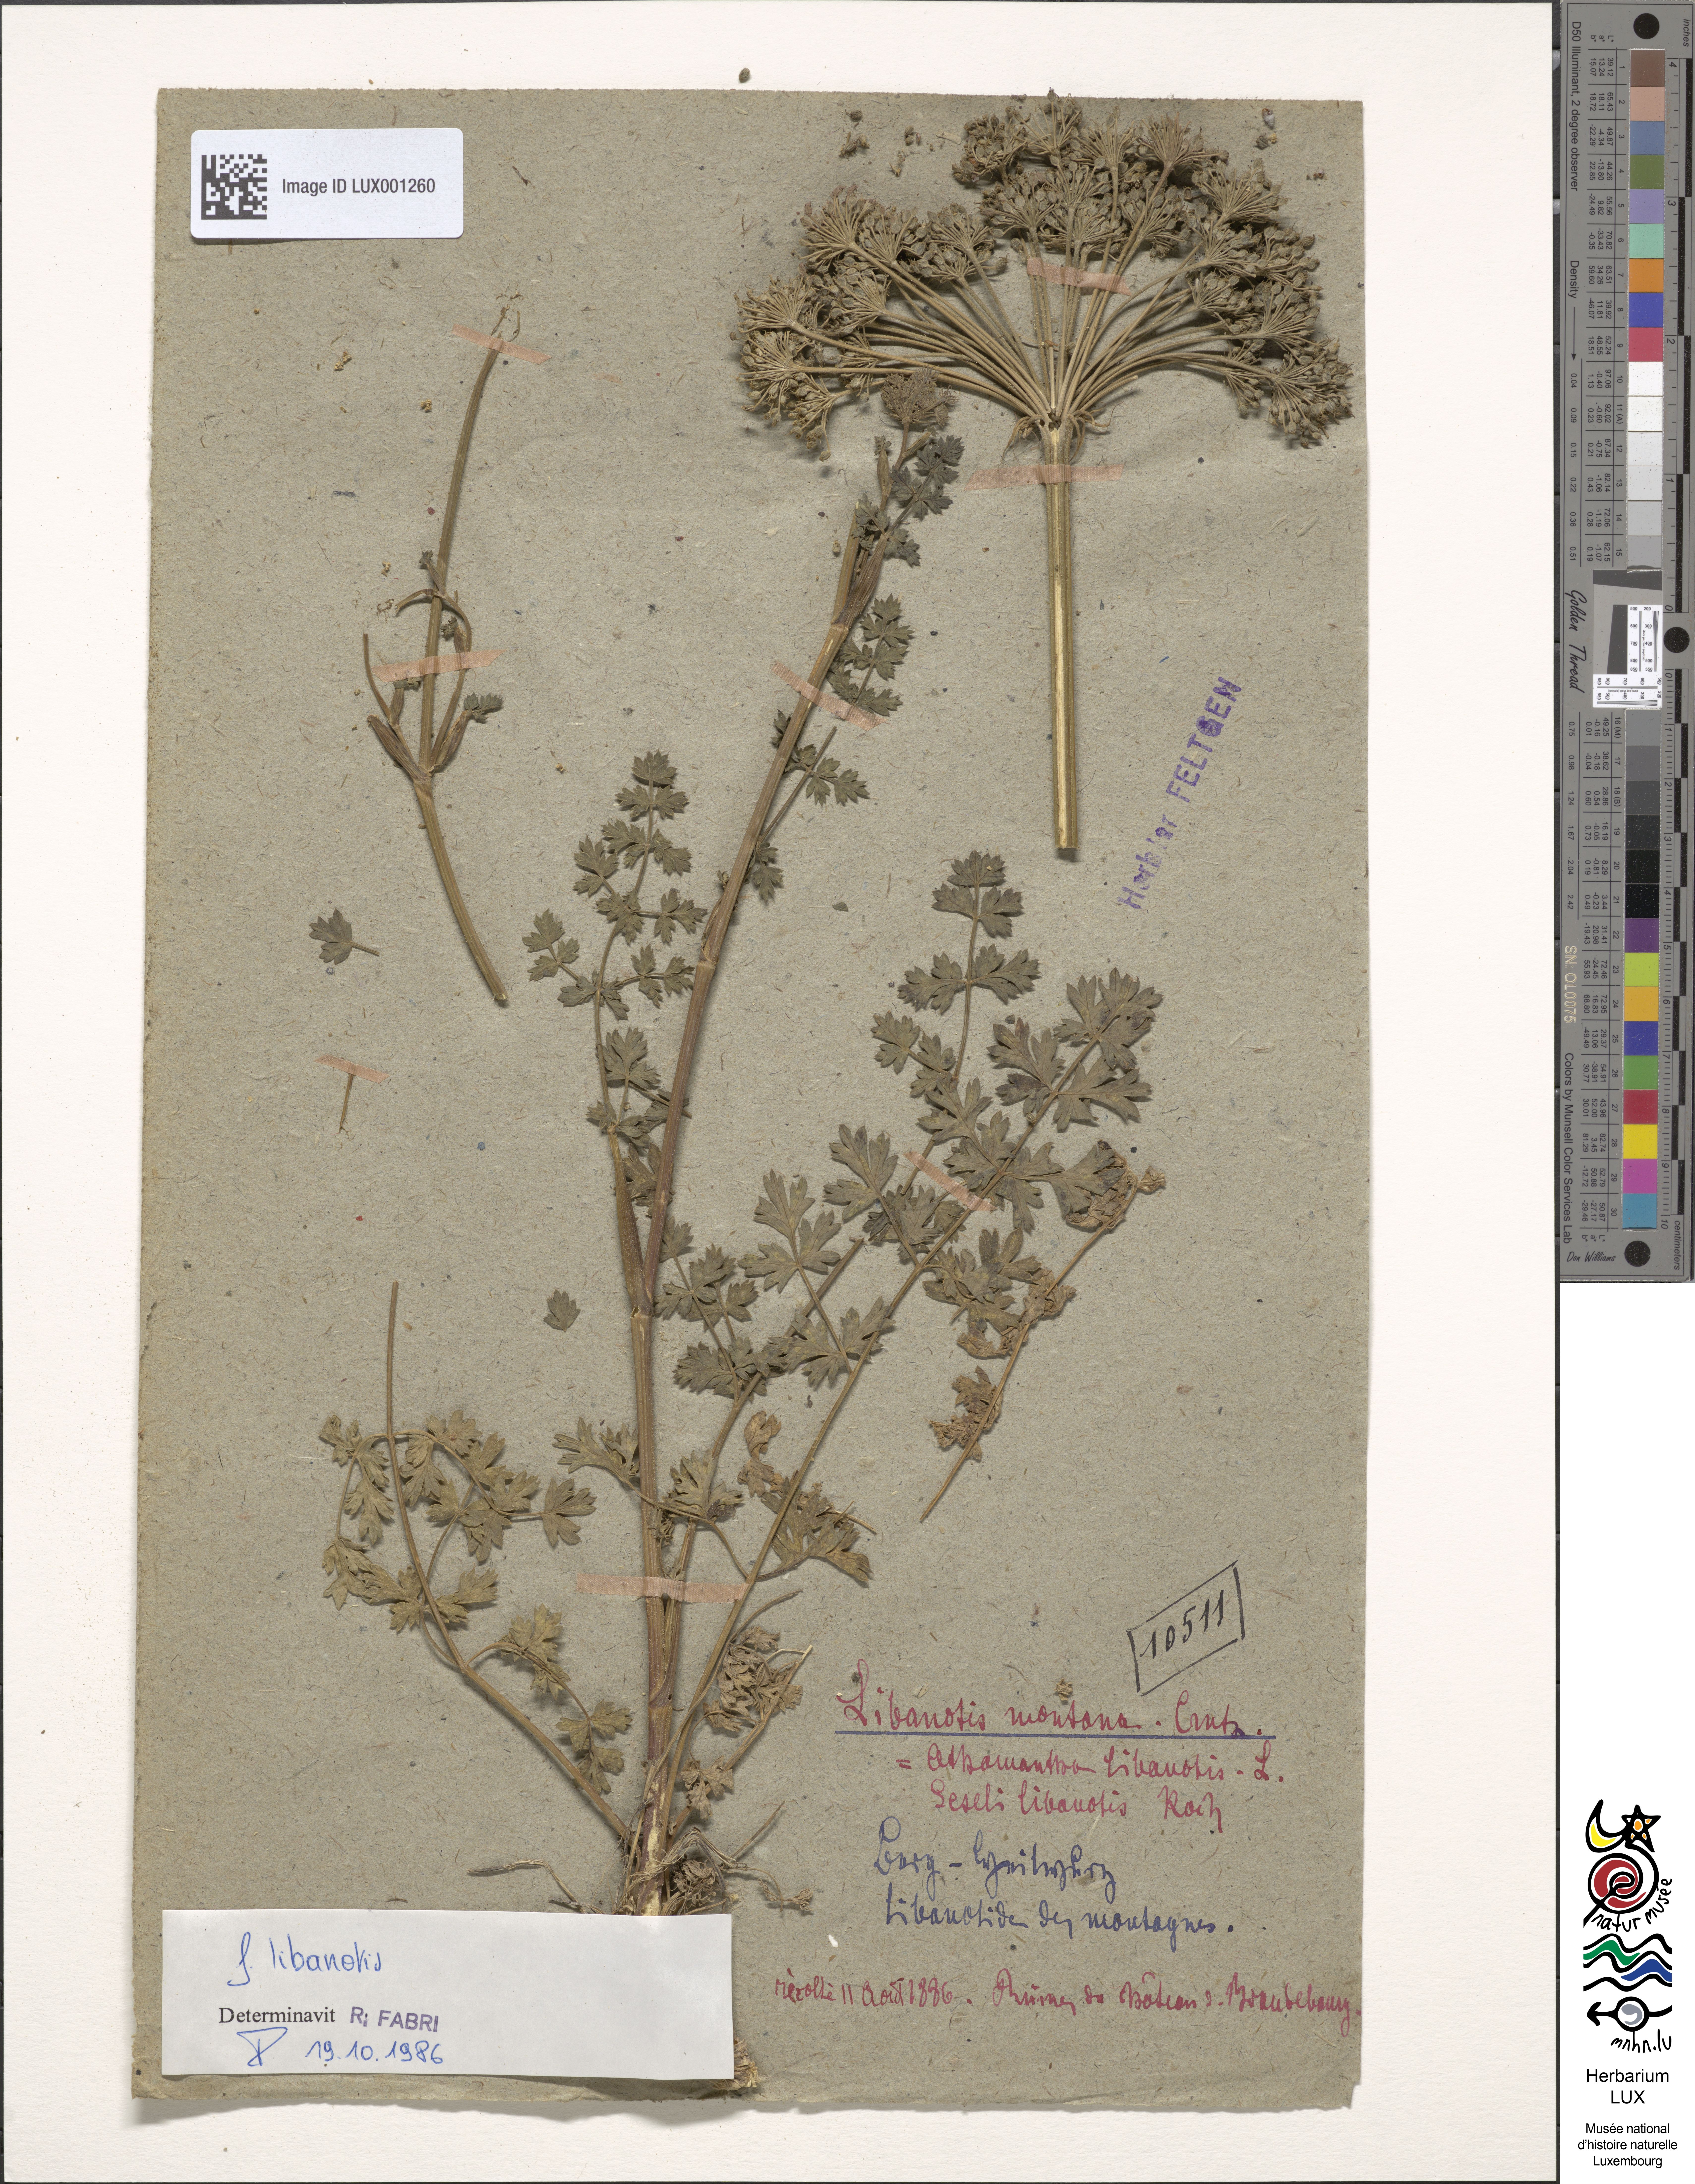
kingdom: Plantae
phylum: Tracheophyta
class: Magnoliopsida
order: Apiales
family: Apiaceae
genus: Seseli
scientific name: Seseli libanotis
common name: Mooncarrot
